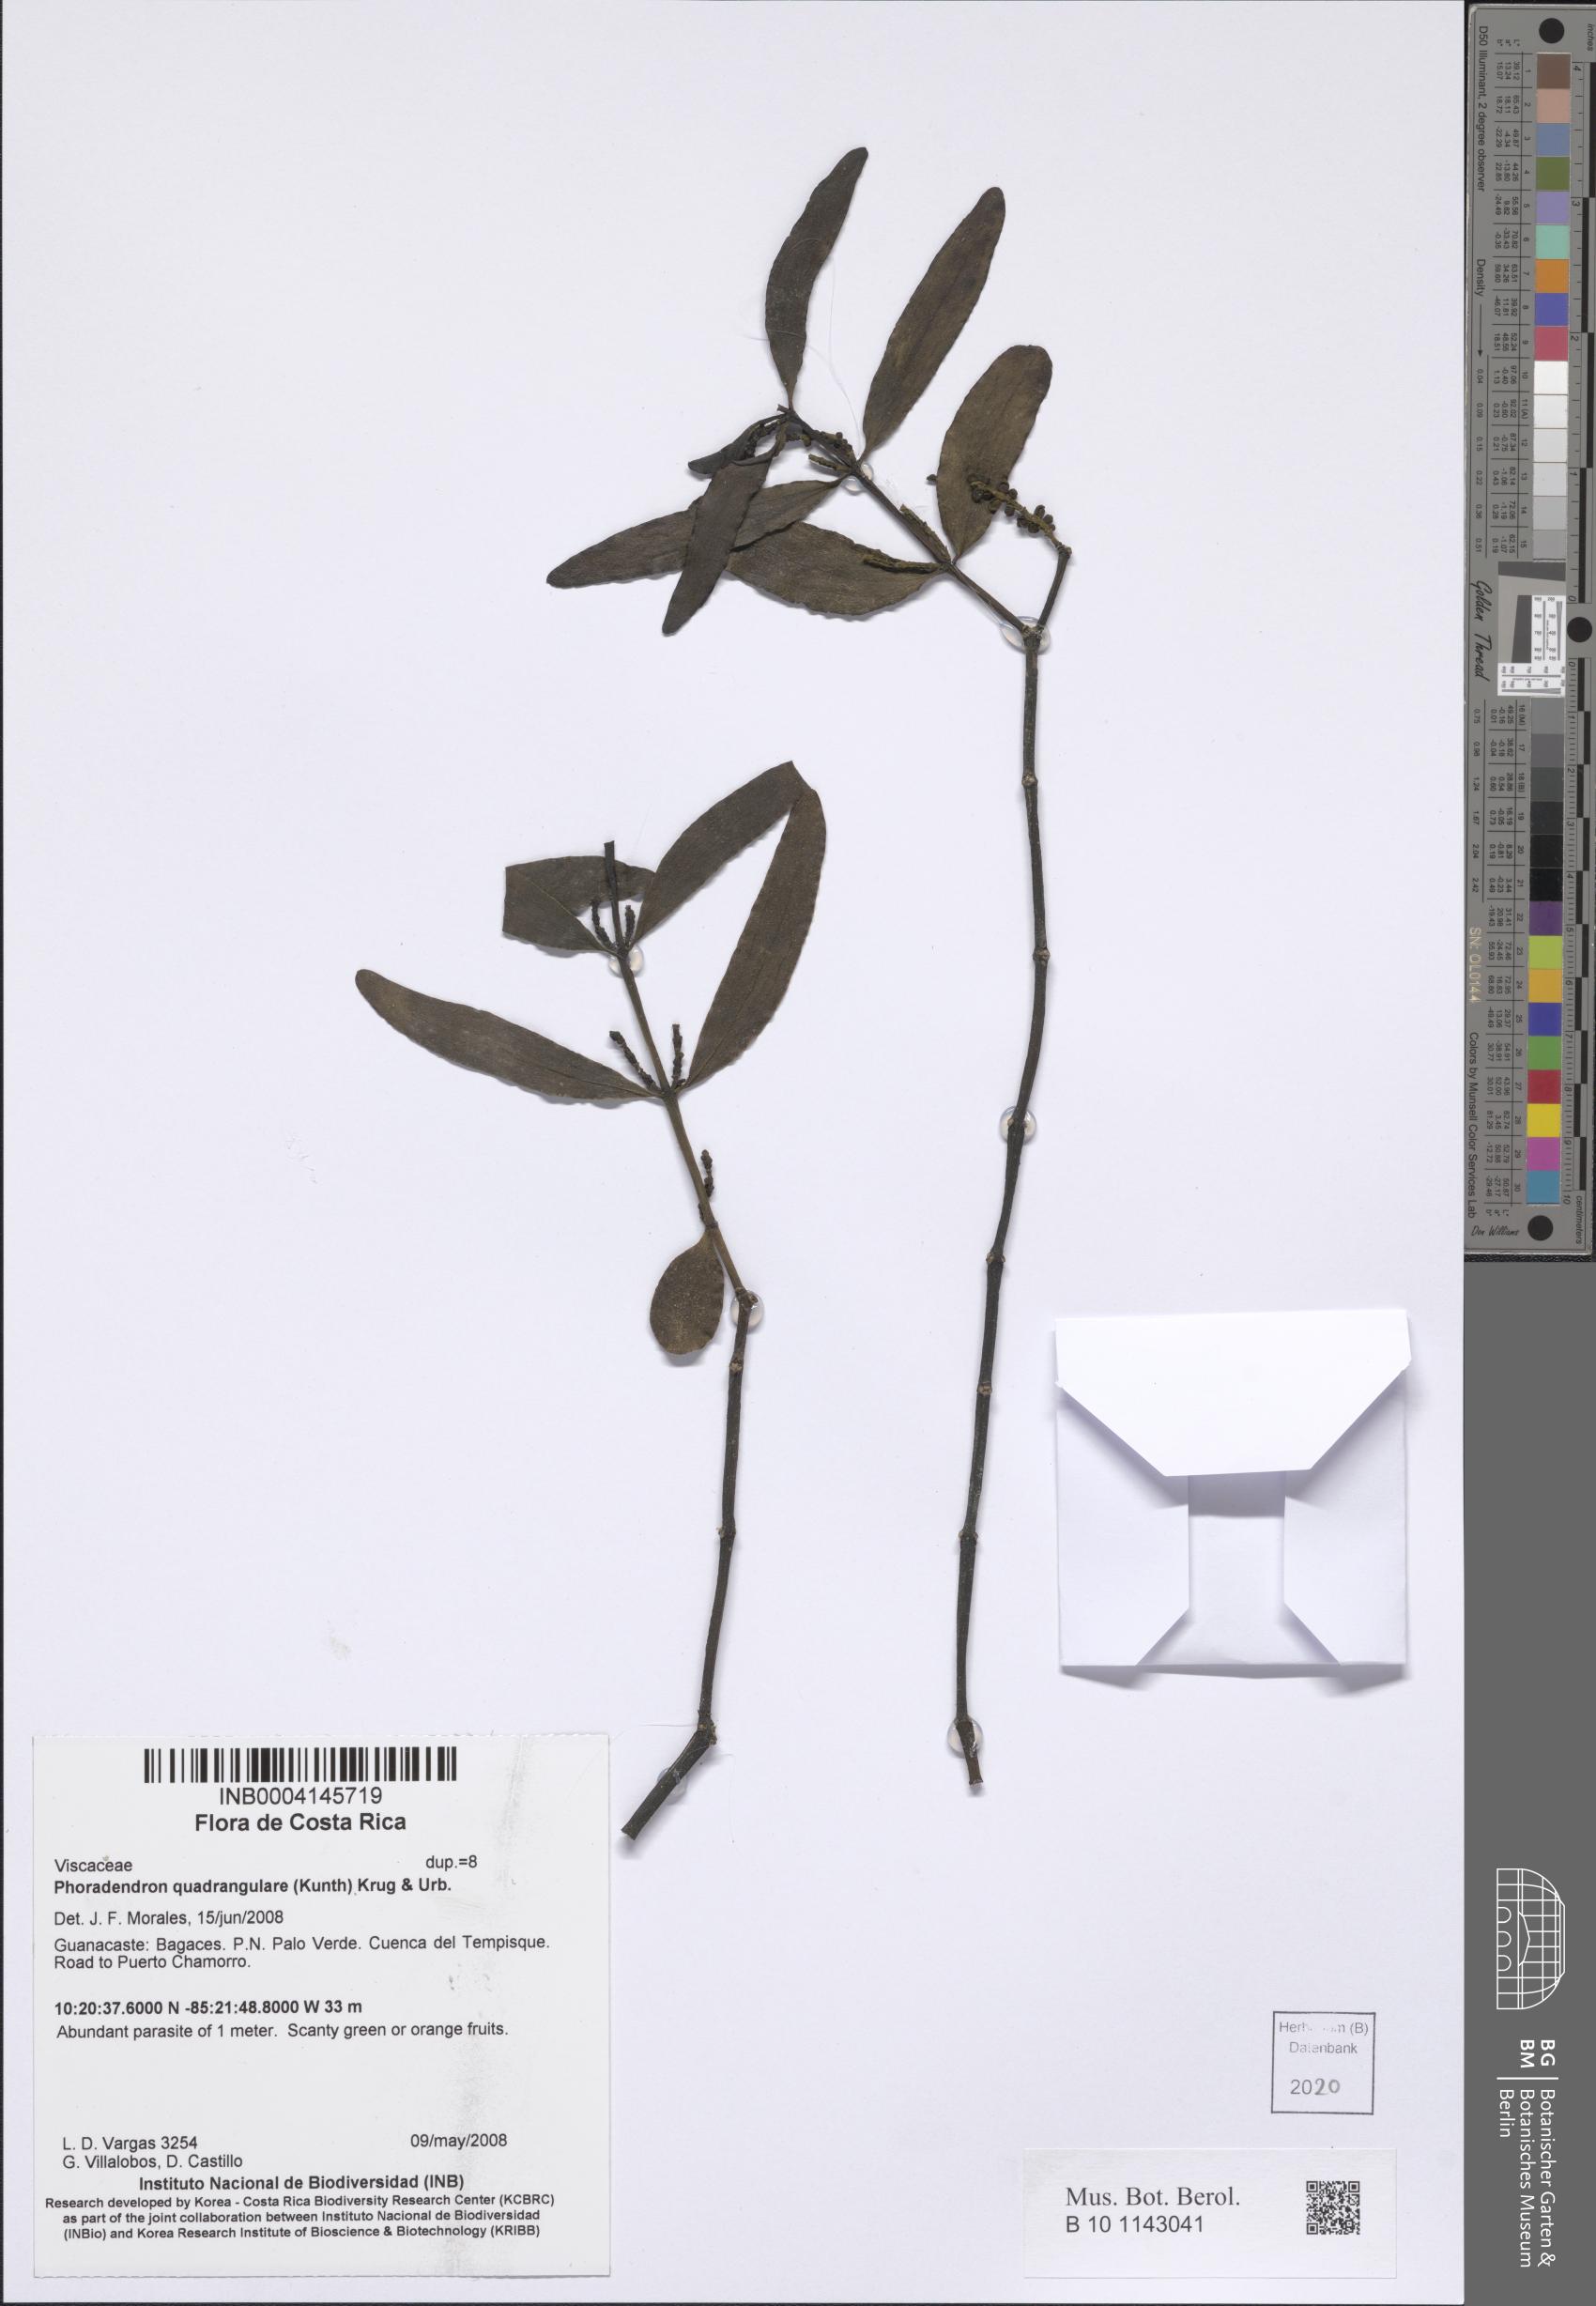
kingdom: Plantae
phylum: Tracheophyta
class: Magnoliopsida
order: Santalales
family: Viscaceae
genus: Phoradendron
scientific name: Phoradendron quadrangulare
